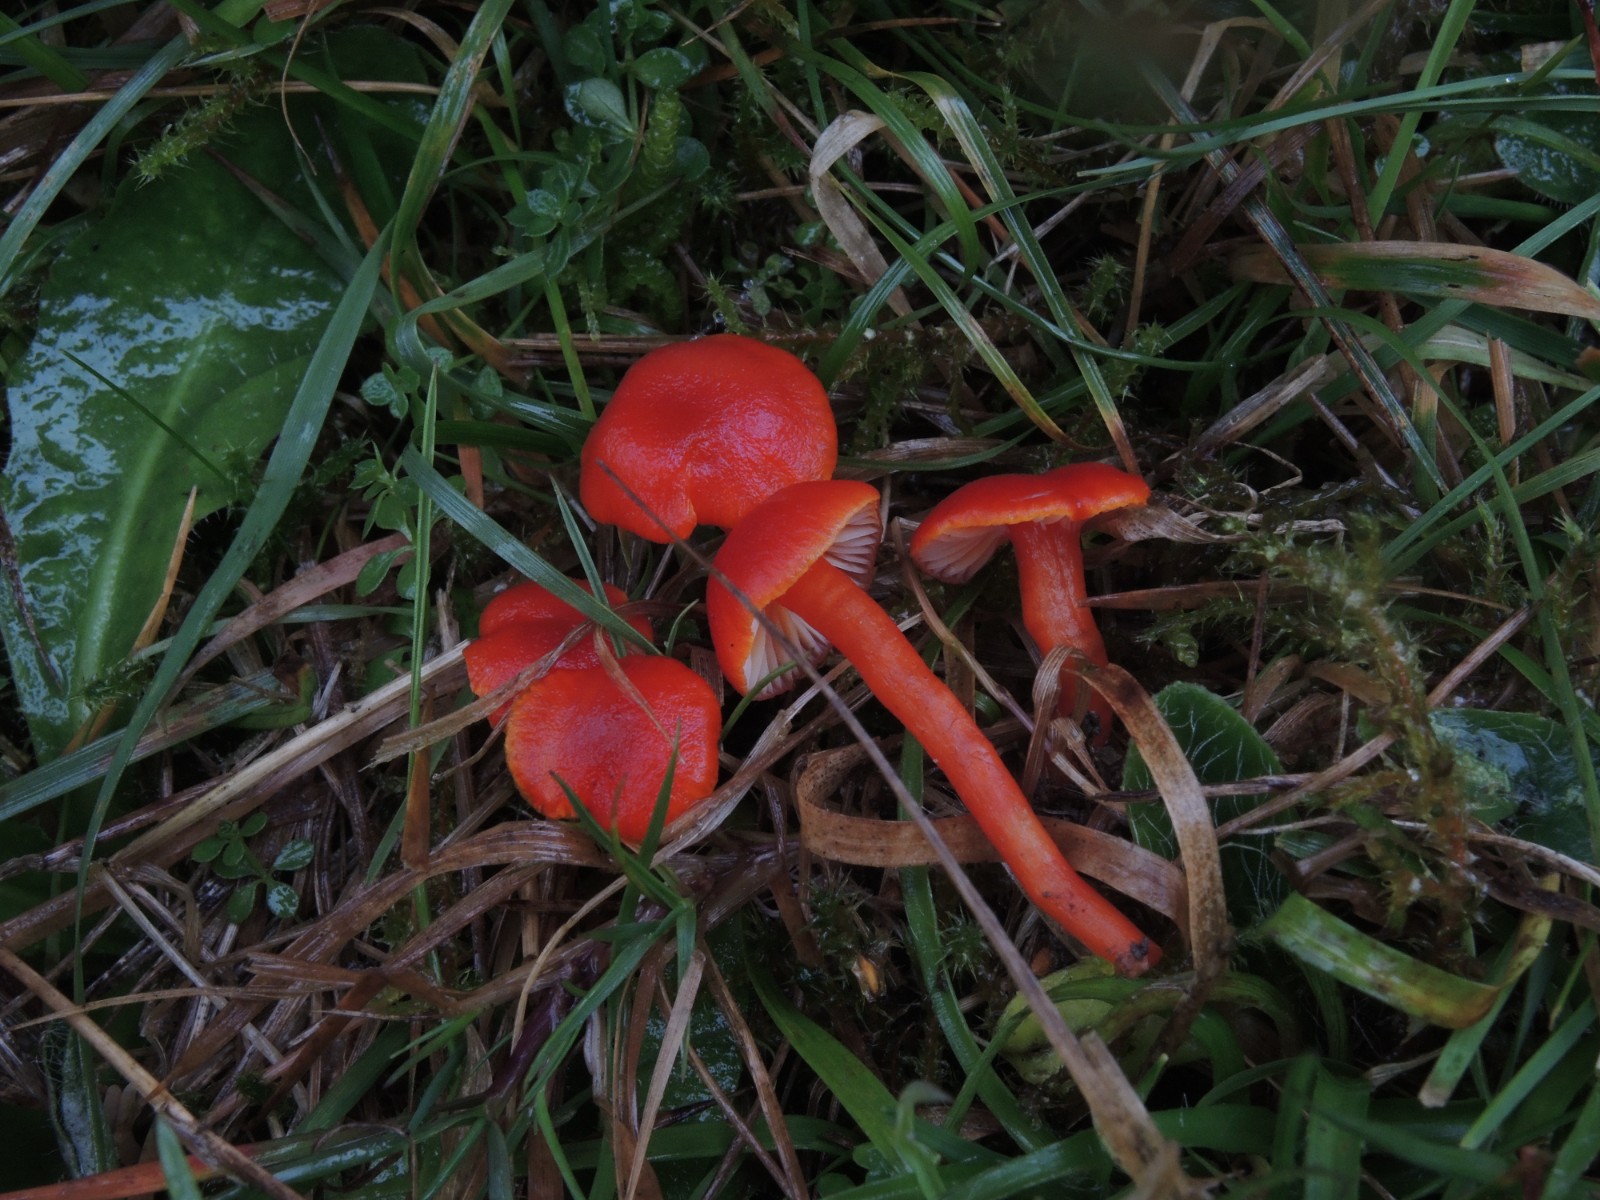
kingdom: Fungi
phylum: Basidiomycota
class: Agaricomycetes
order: Agaricales
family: Hygrophoraceae
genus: Hygrocybe
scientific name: Hygrocybe miniata
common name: mønje-vokshat
